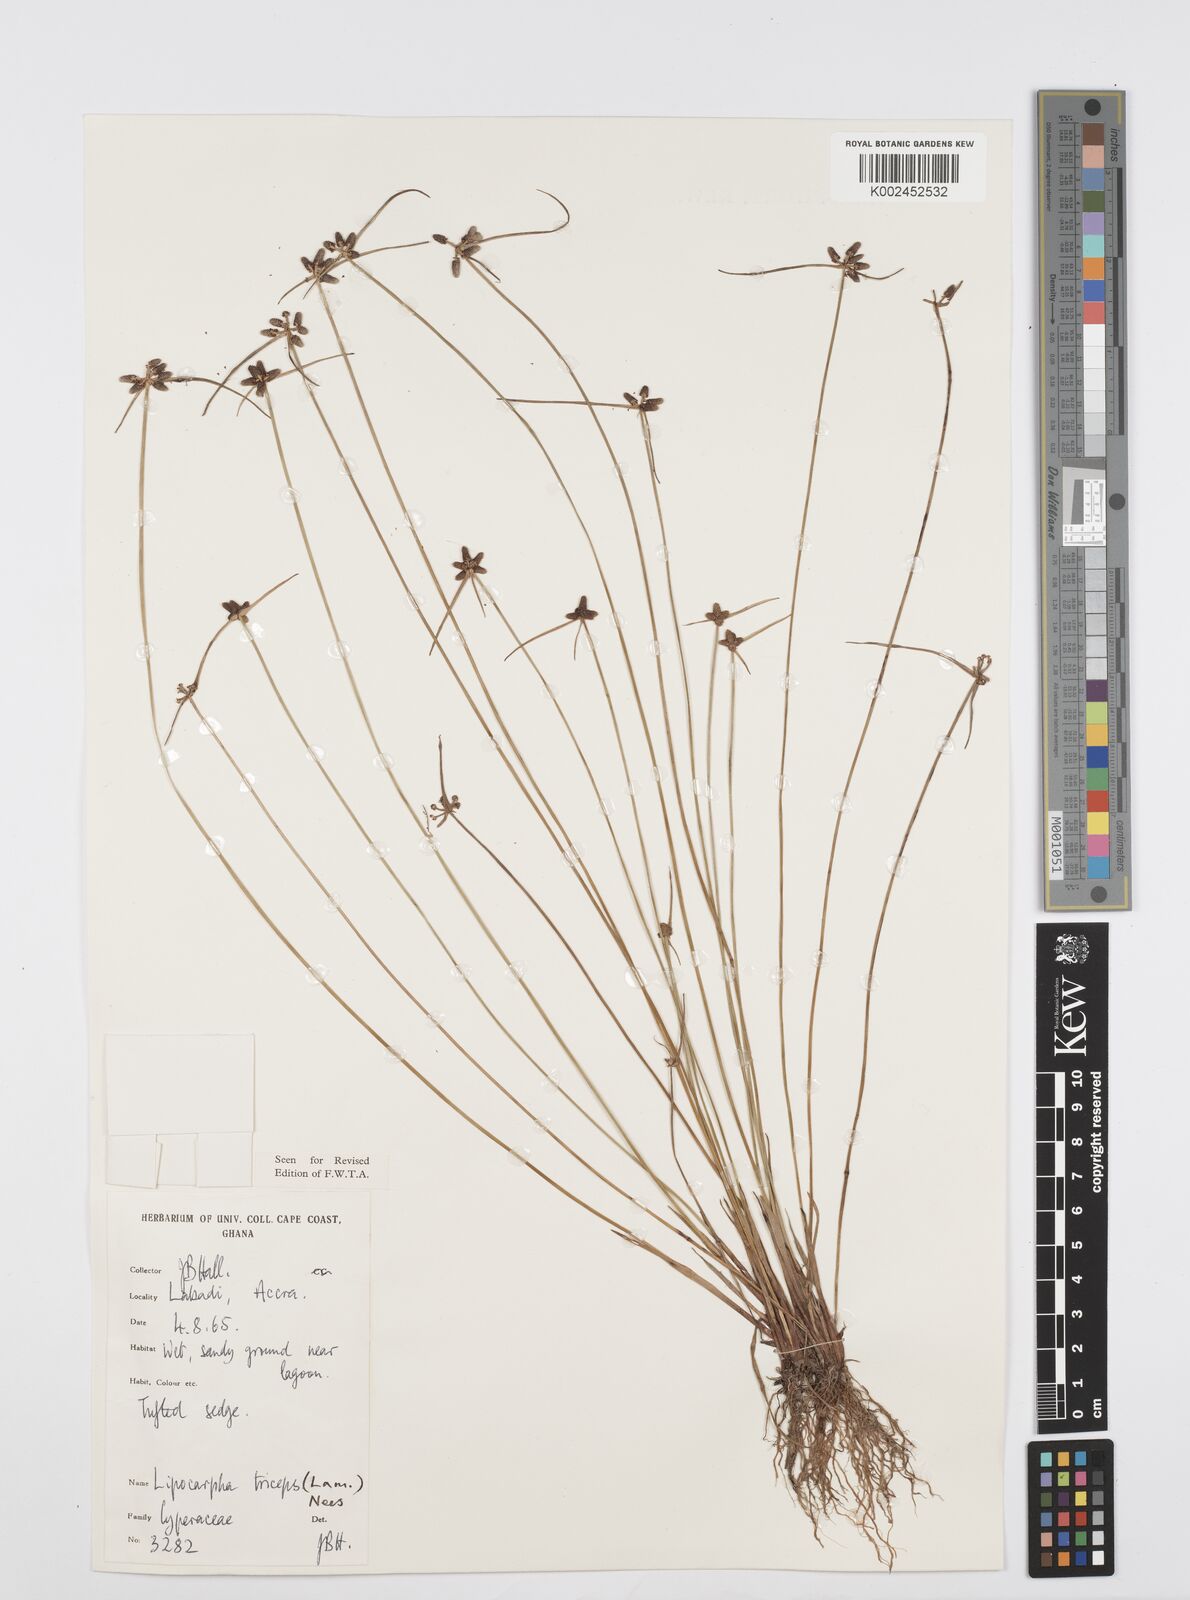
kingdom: Plantae
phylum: Tracheophyta
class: Liliopsida
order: Poales
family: Cyperaceae
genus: Cyperus
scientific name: Cyperus filiformis
